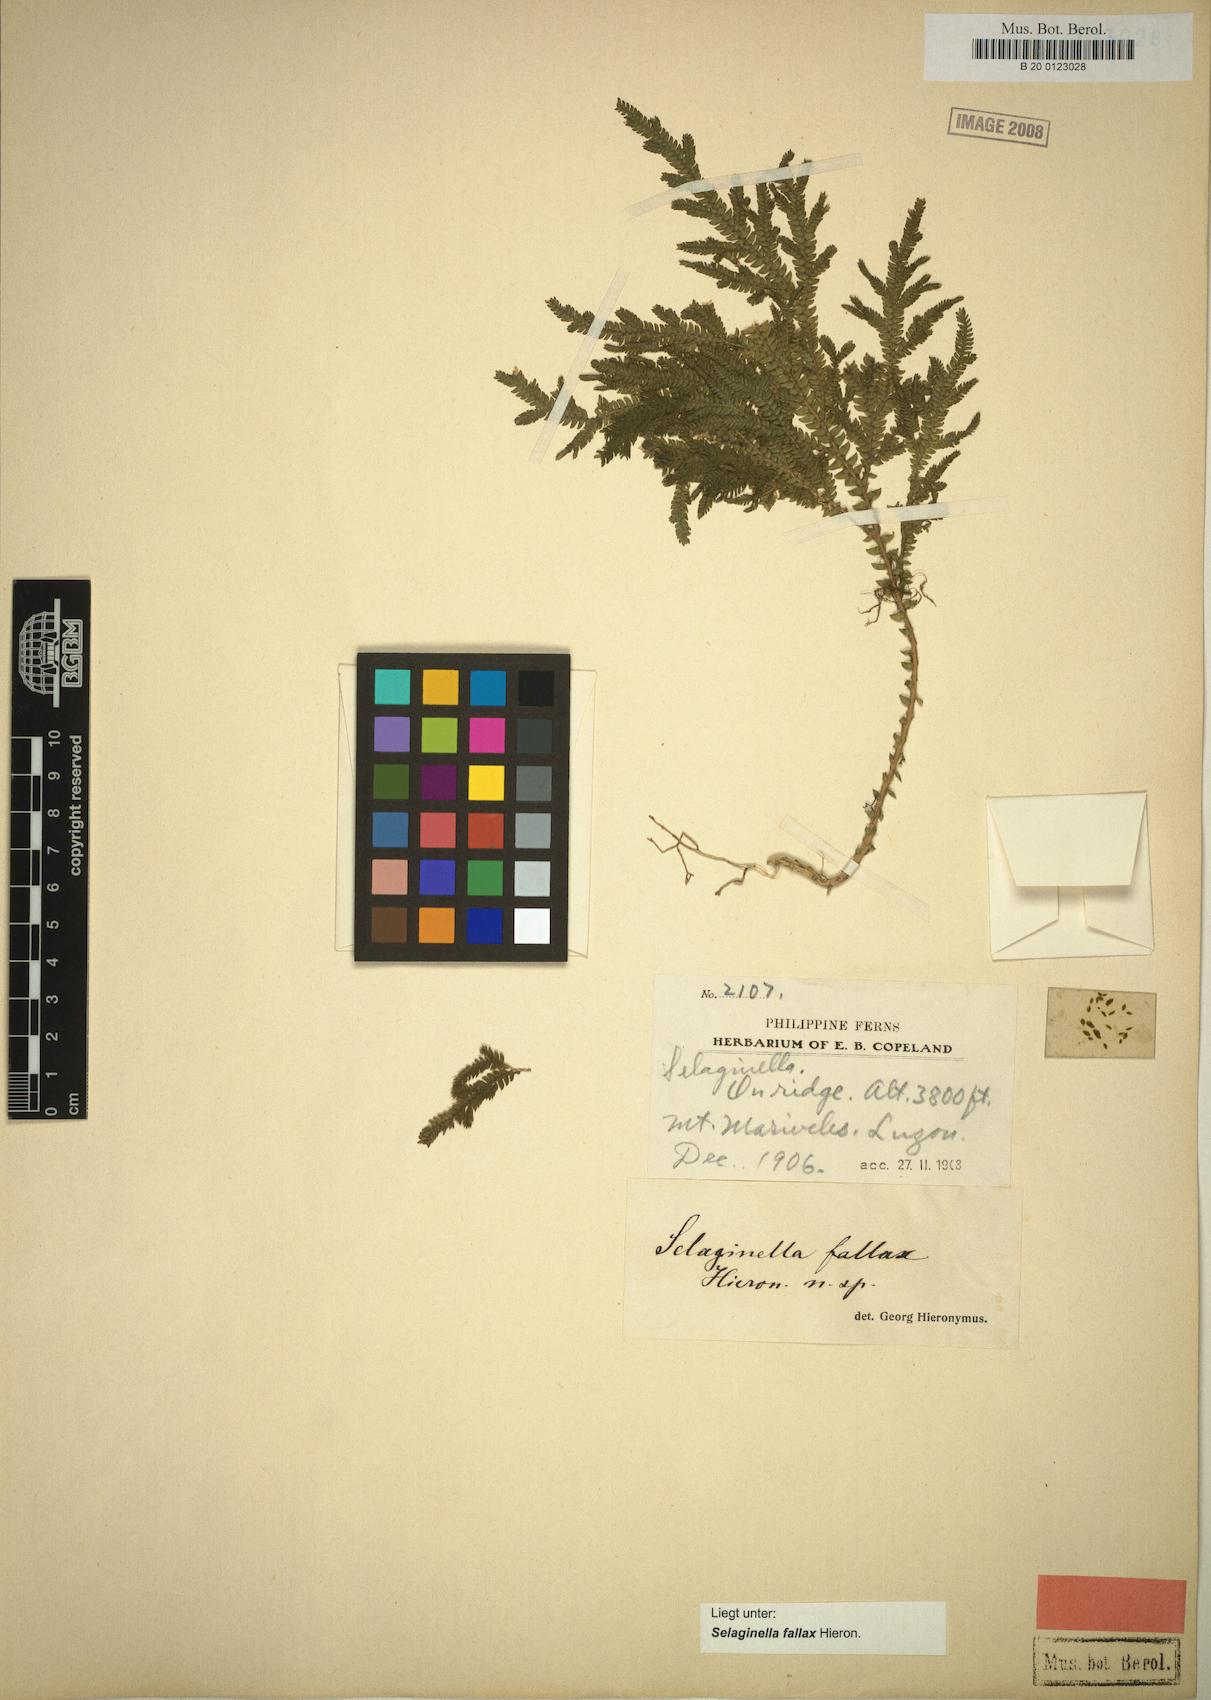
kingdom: Plantae
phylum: Tracheophyta
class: Lycopodiopsida
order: Selaginellales
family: Selaginellaceae
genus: Selaginella
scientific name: Selaginella jagorii
